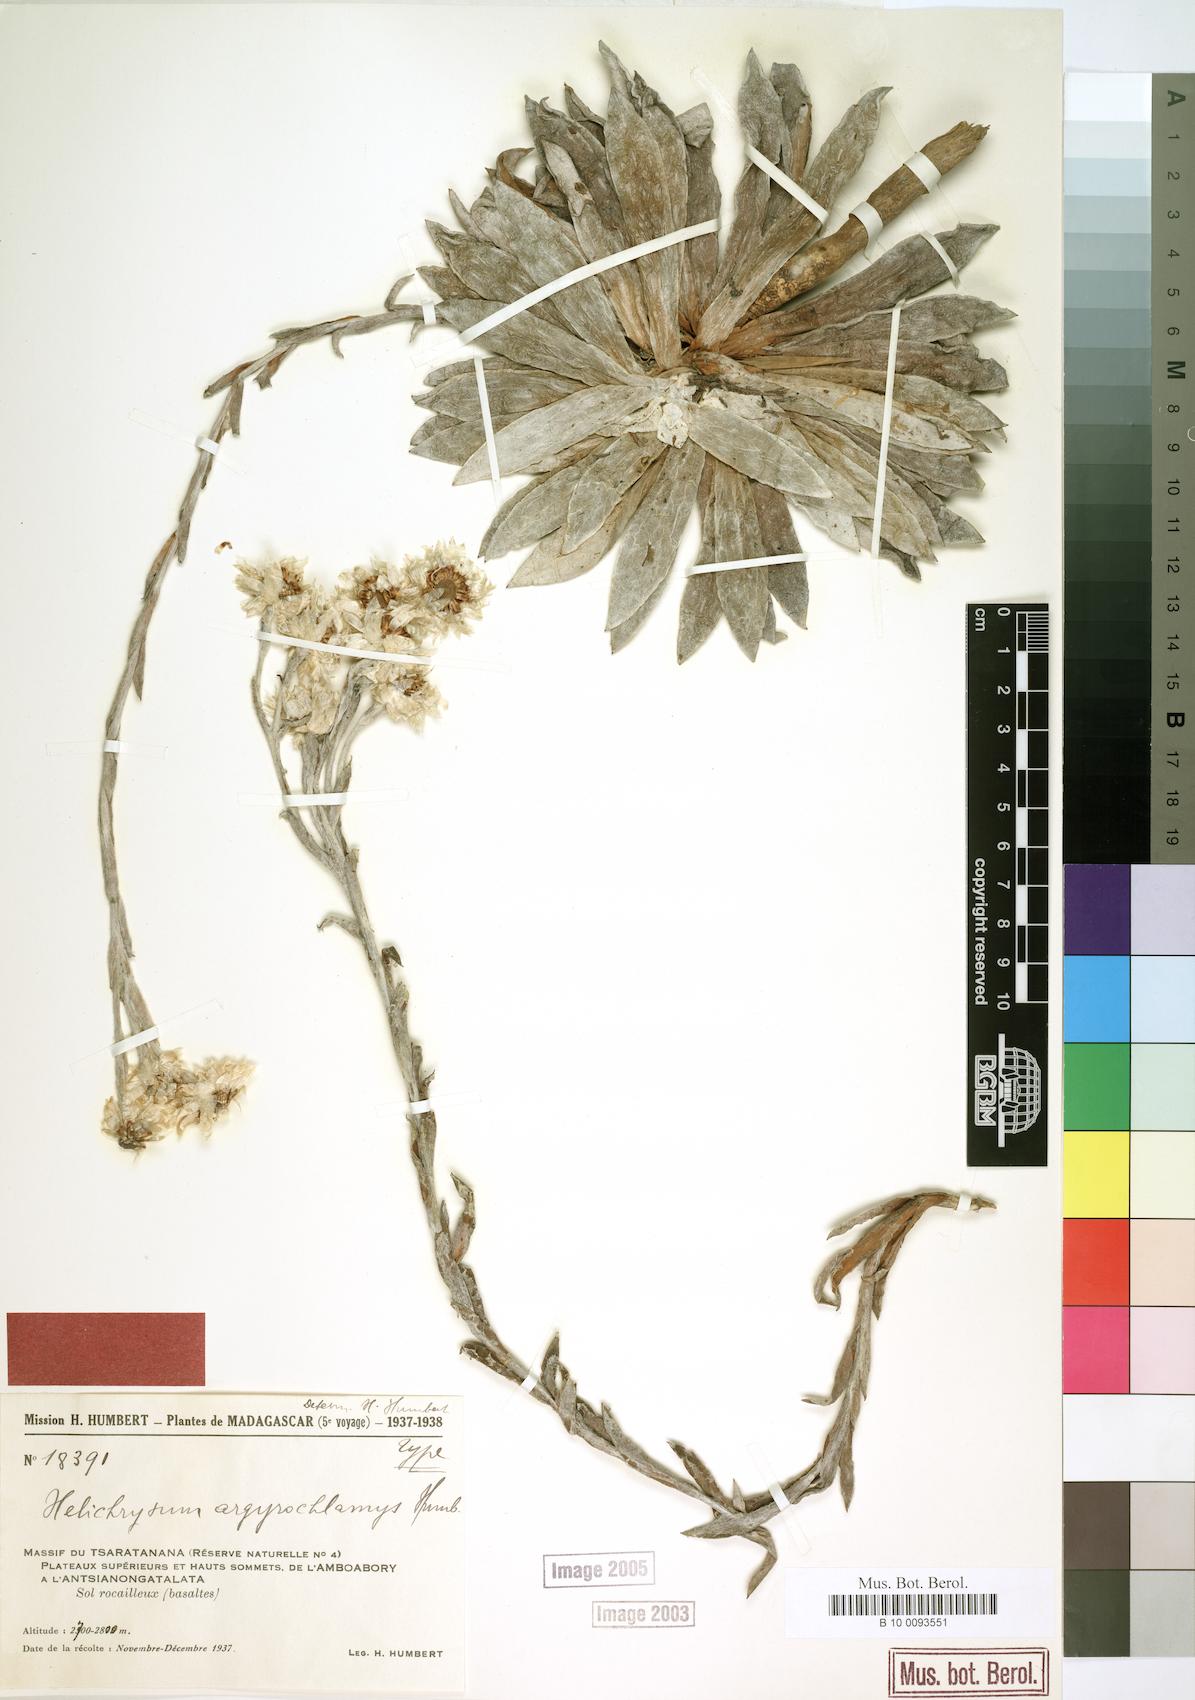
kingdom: Plantae
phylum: Tracheophyta
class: Magnoliopsida
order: Asterales
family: Asteraceae
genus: Helichrysum
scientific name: Helichrysum argyrochlamys
